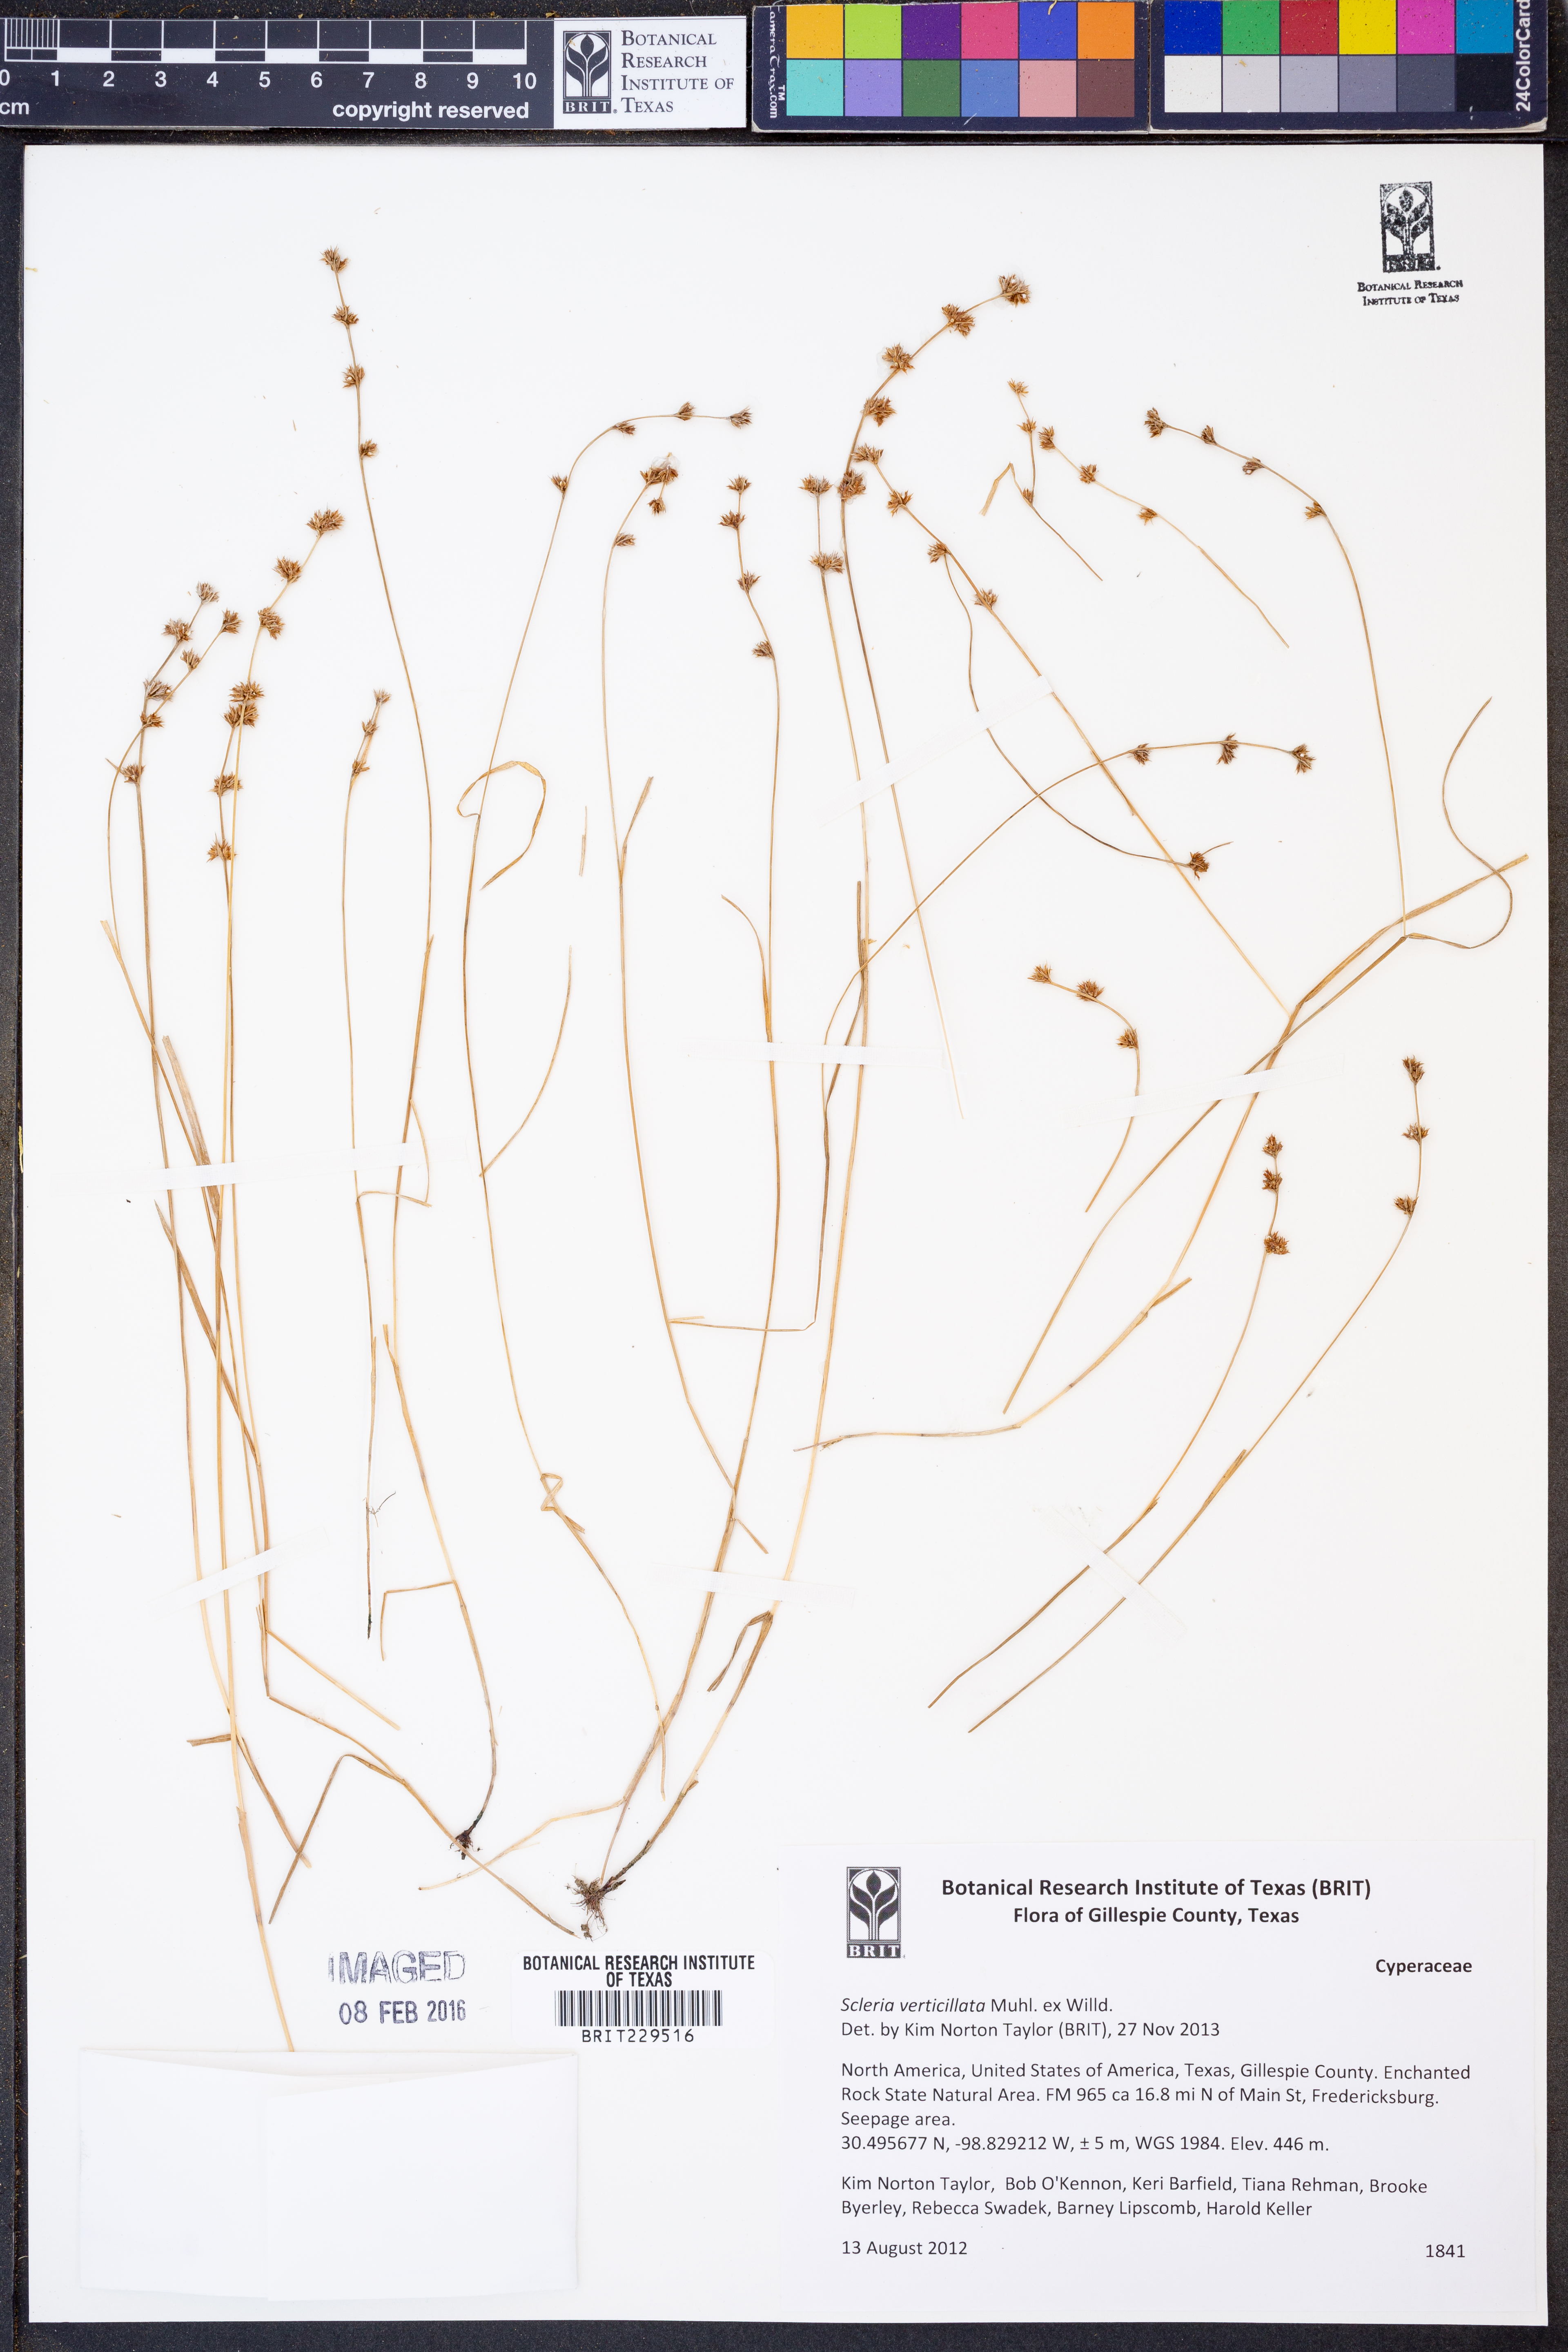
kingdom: Plantae
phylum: Tracheophyta
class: Liliopsida
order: Poales
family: Cyperaceae
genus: Scleria
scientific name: Scleria verticillata
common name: Low nutrush
